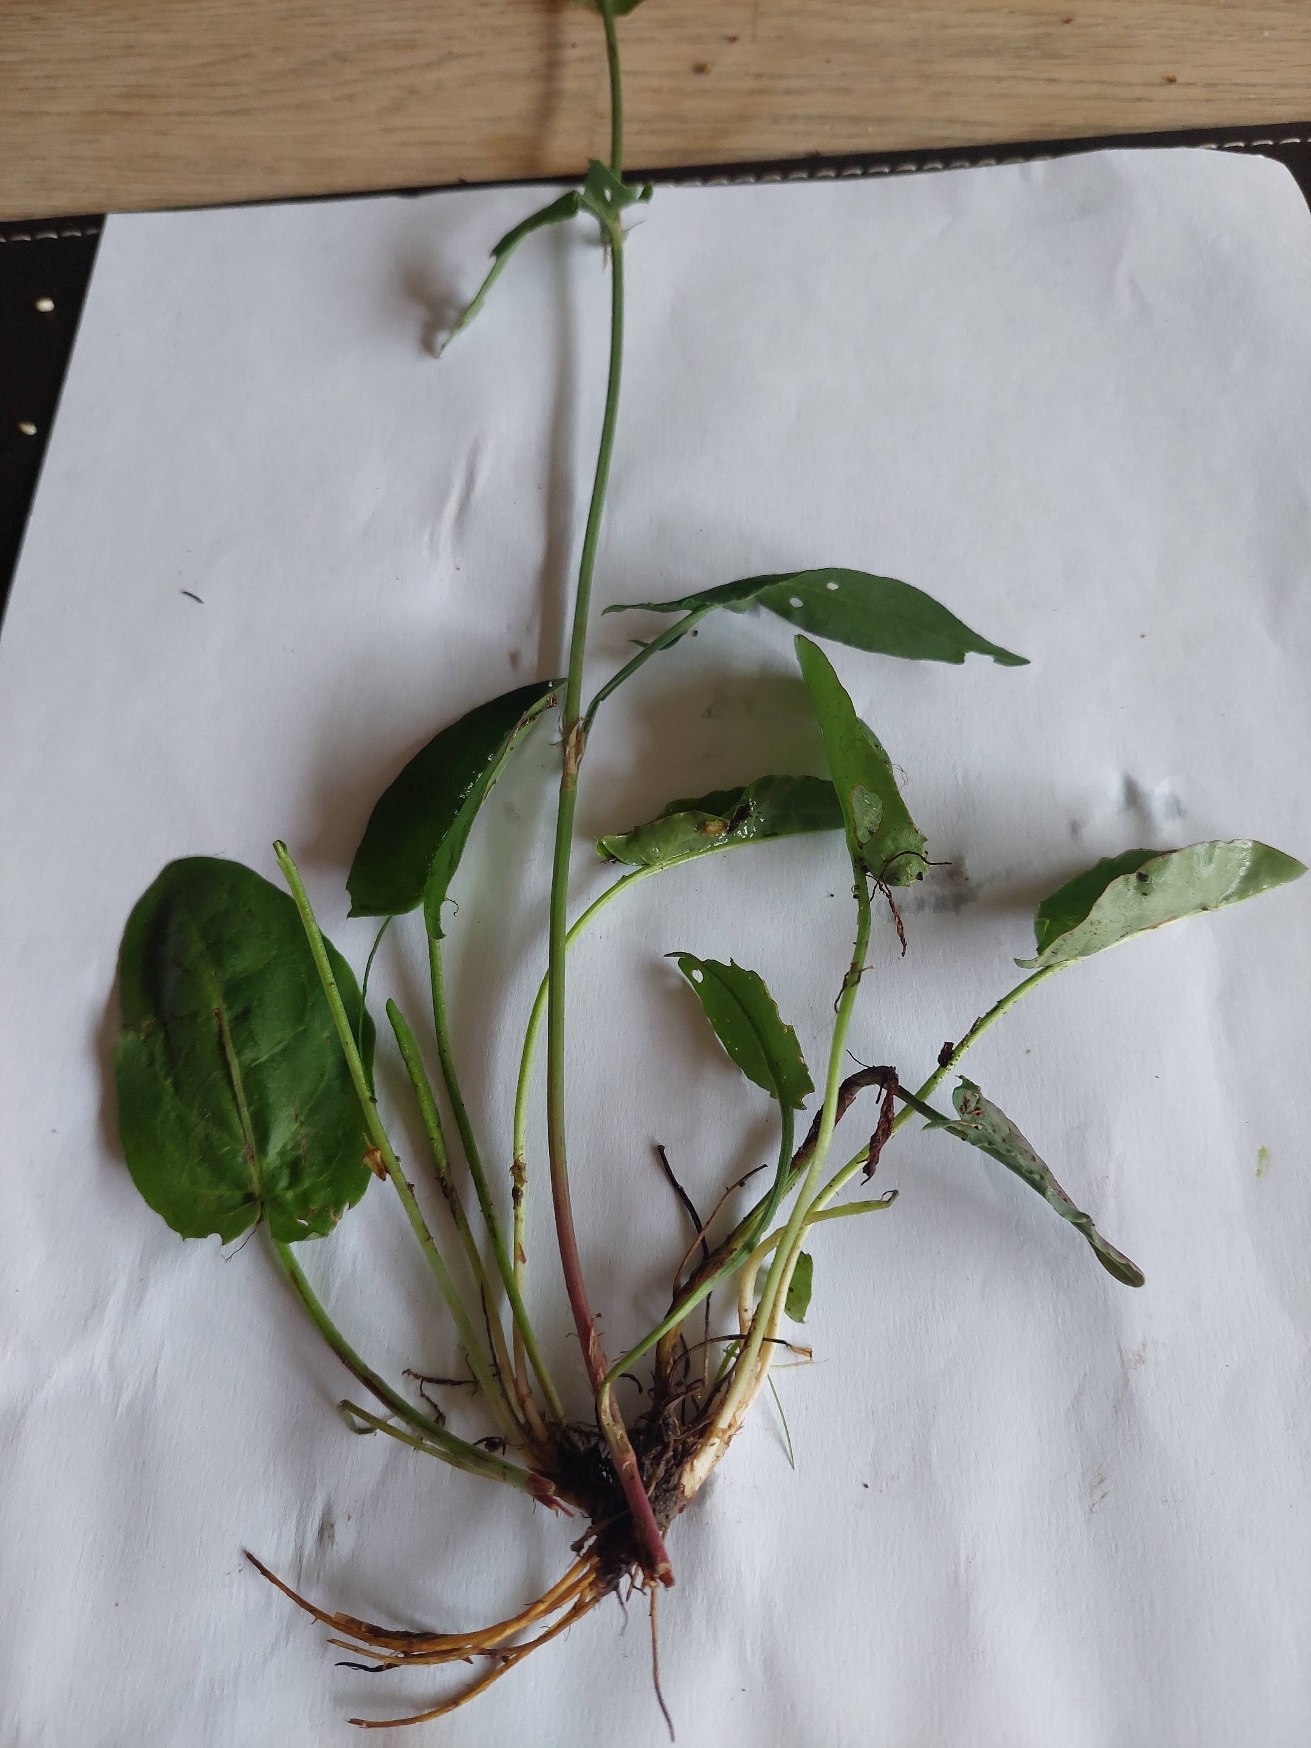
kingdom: Plantae
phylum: Tracheophyta
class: Magnoliopsida
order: Caryophyllales
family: Polygonaceae
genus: Rumex
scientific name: Rumex acetosa
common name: Almindelig syre
